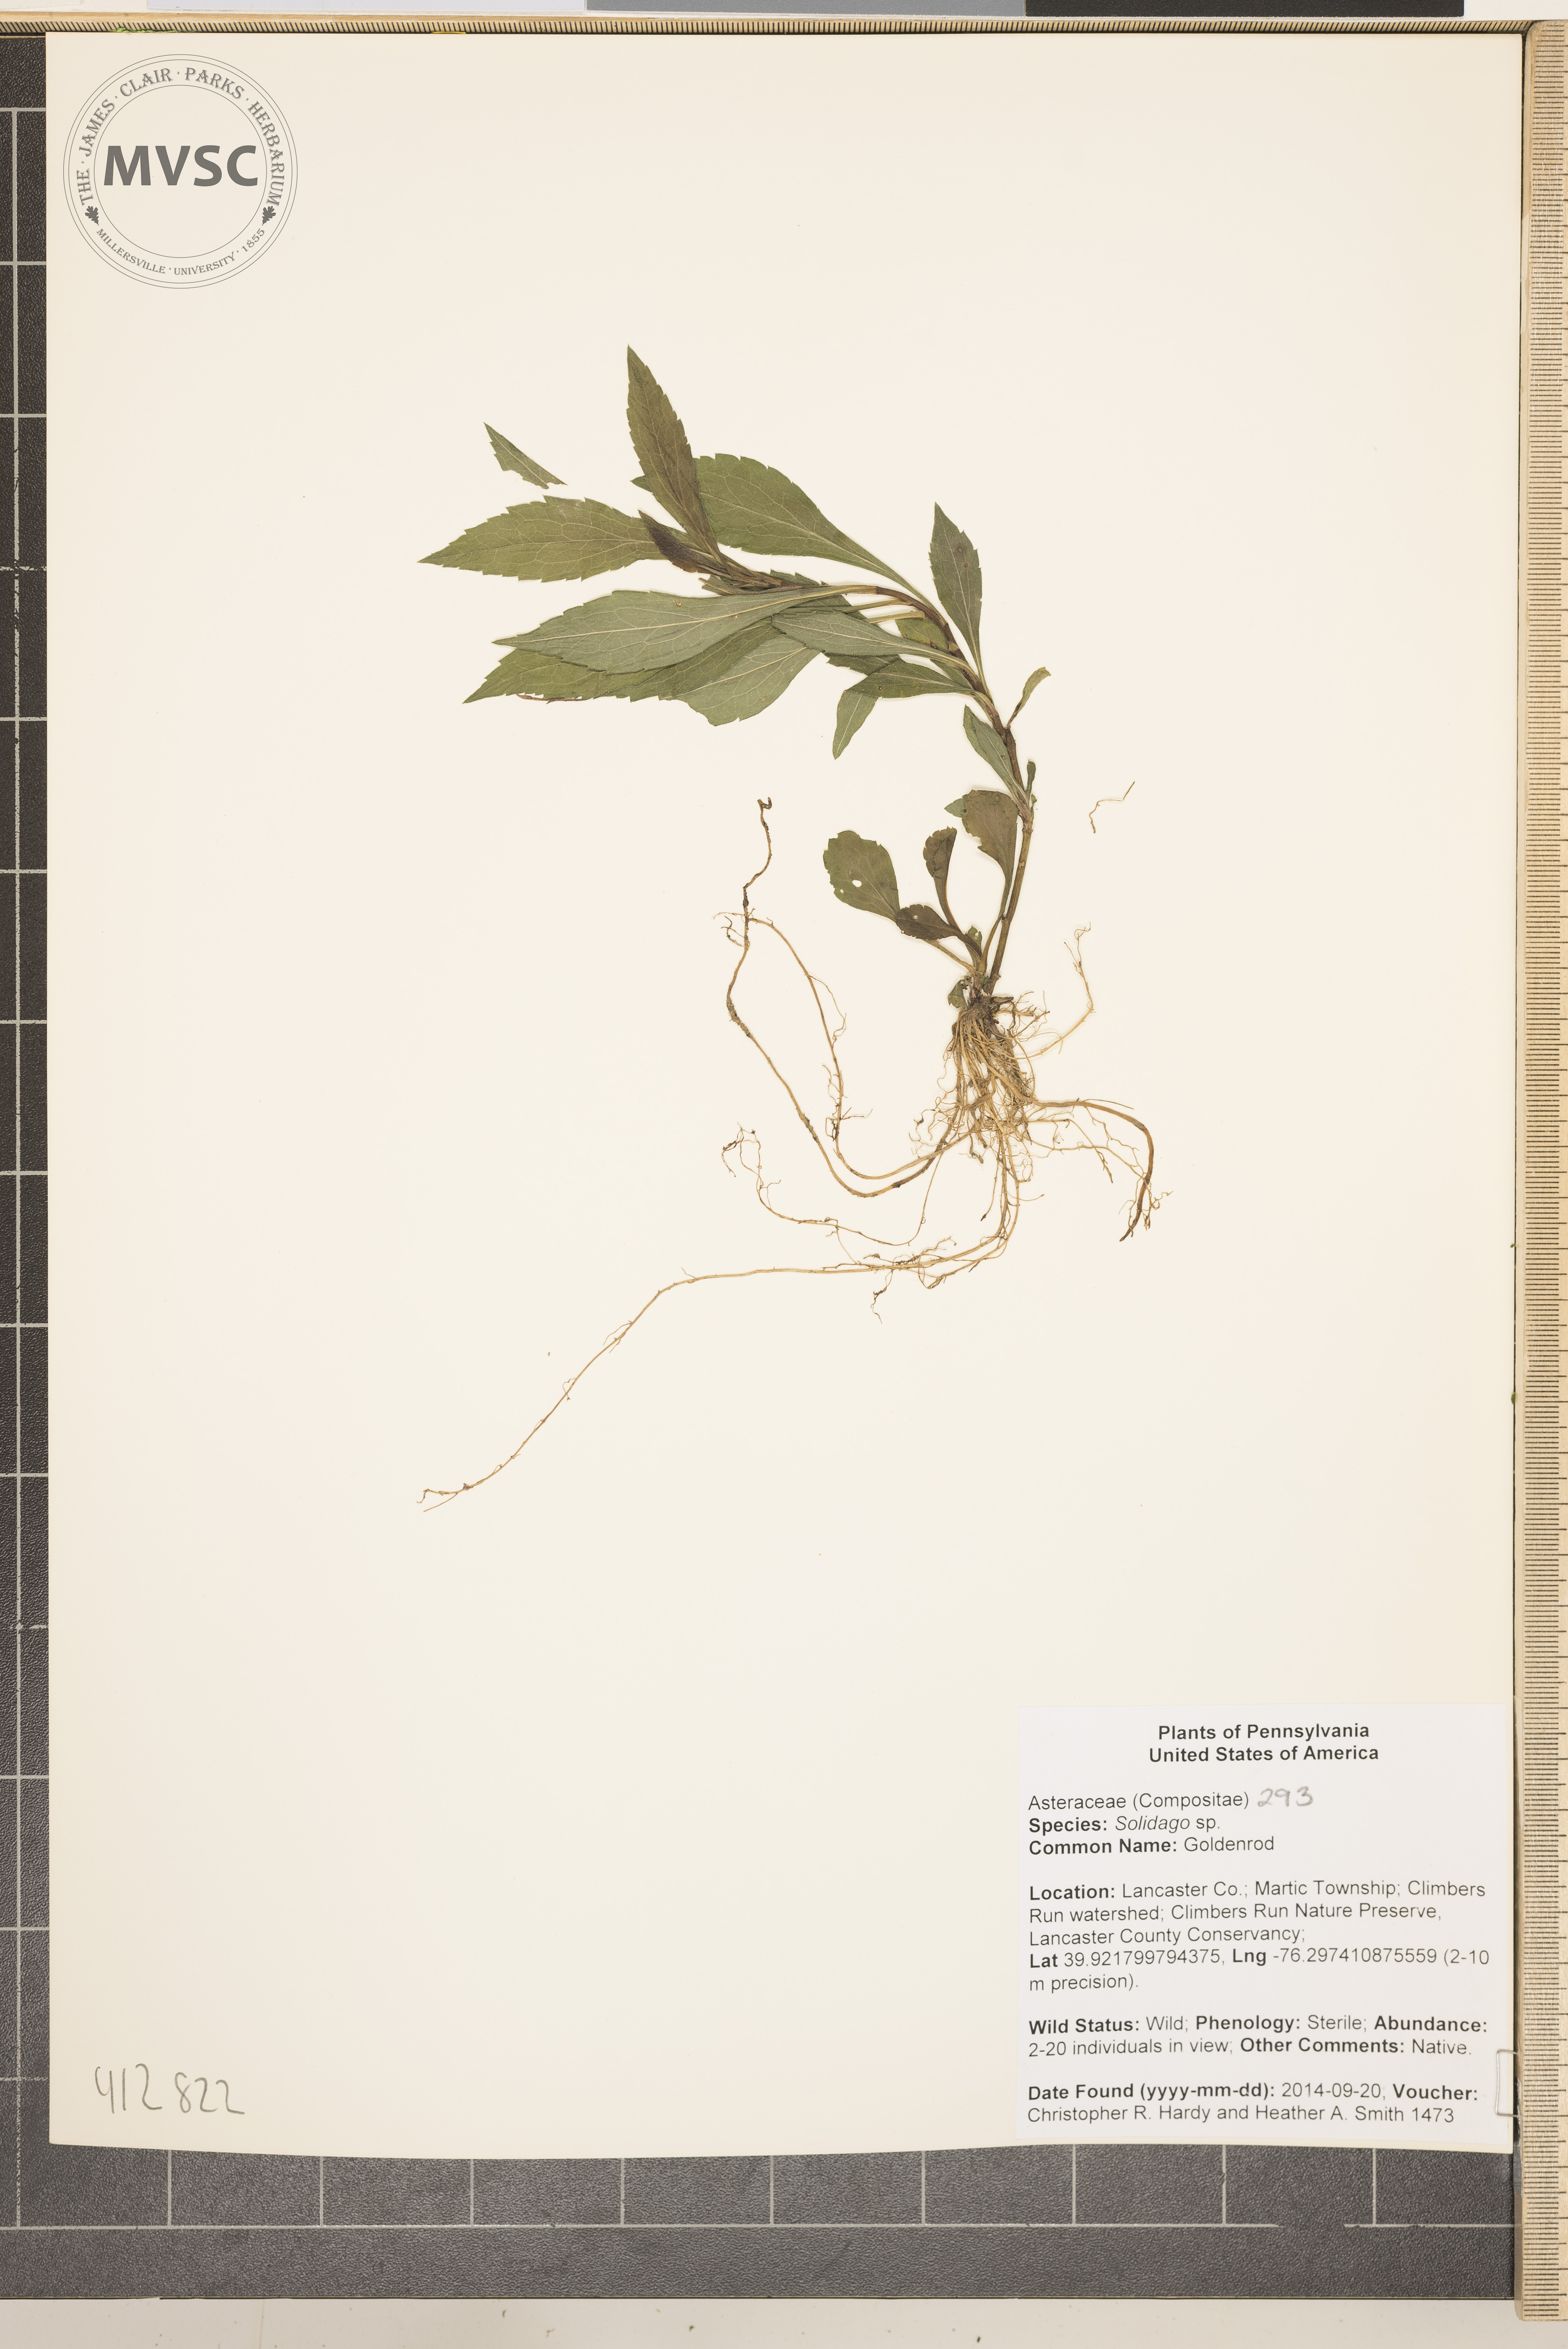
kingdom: Plantae
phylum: Tracheophyta
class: Magnoliopsida
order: Asterales
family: Asteraceae
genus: Solidago
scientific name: Solidago
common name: goldenrod
